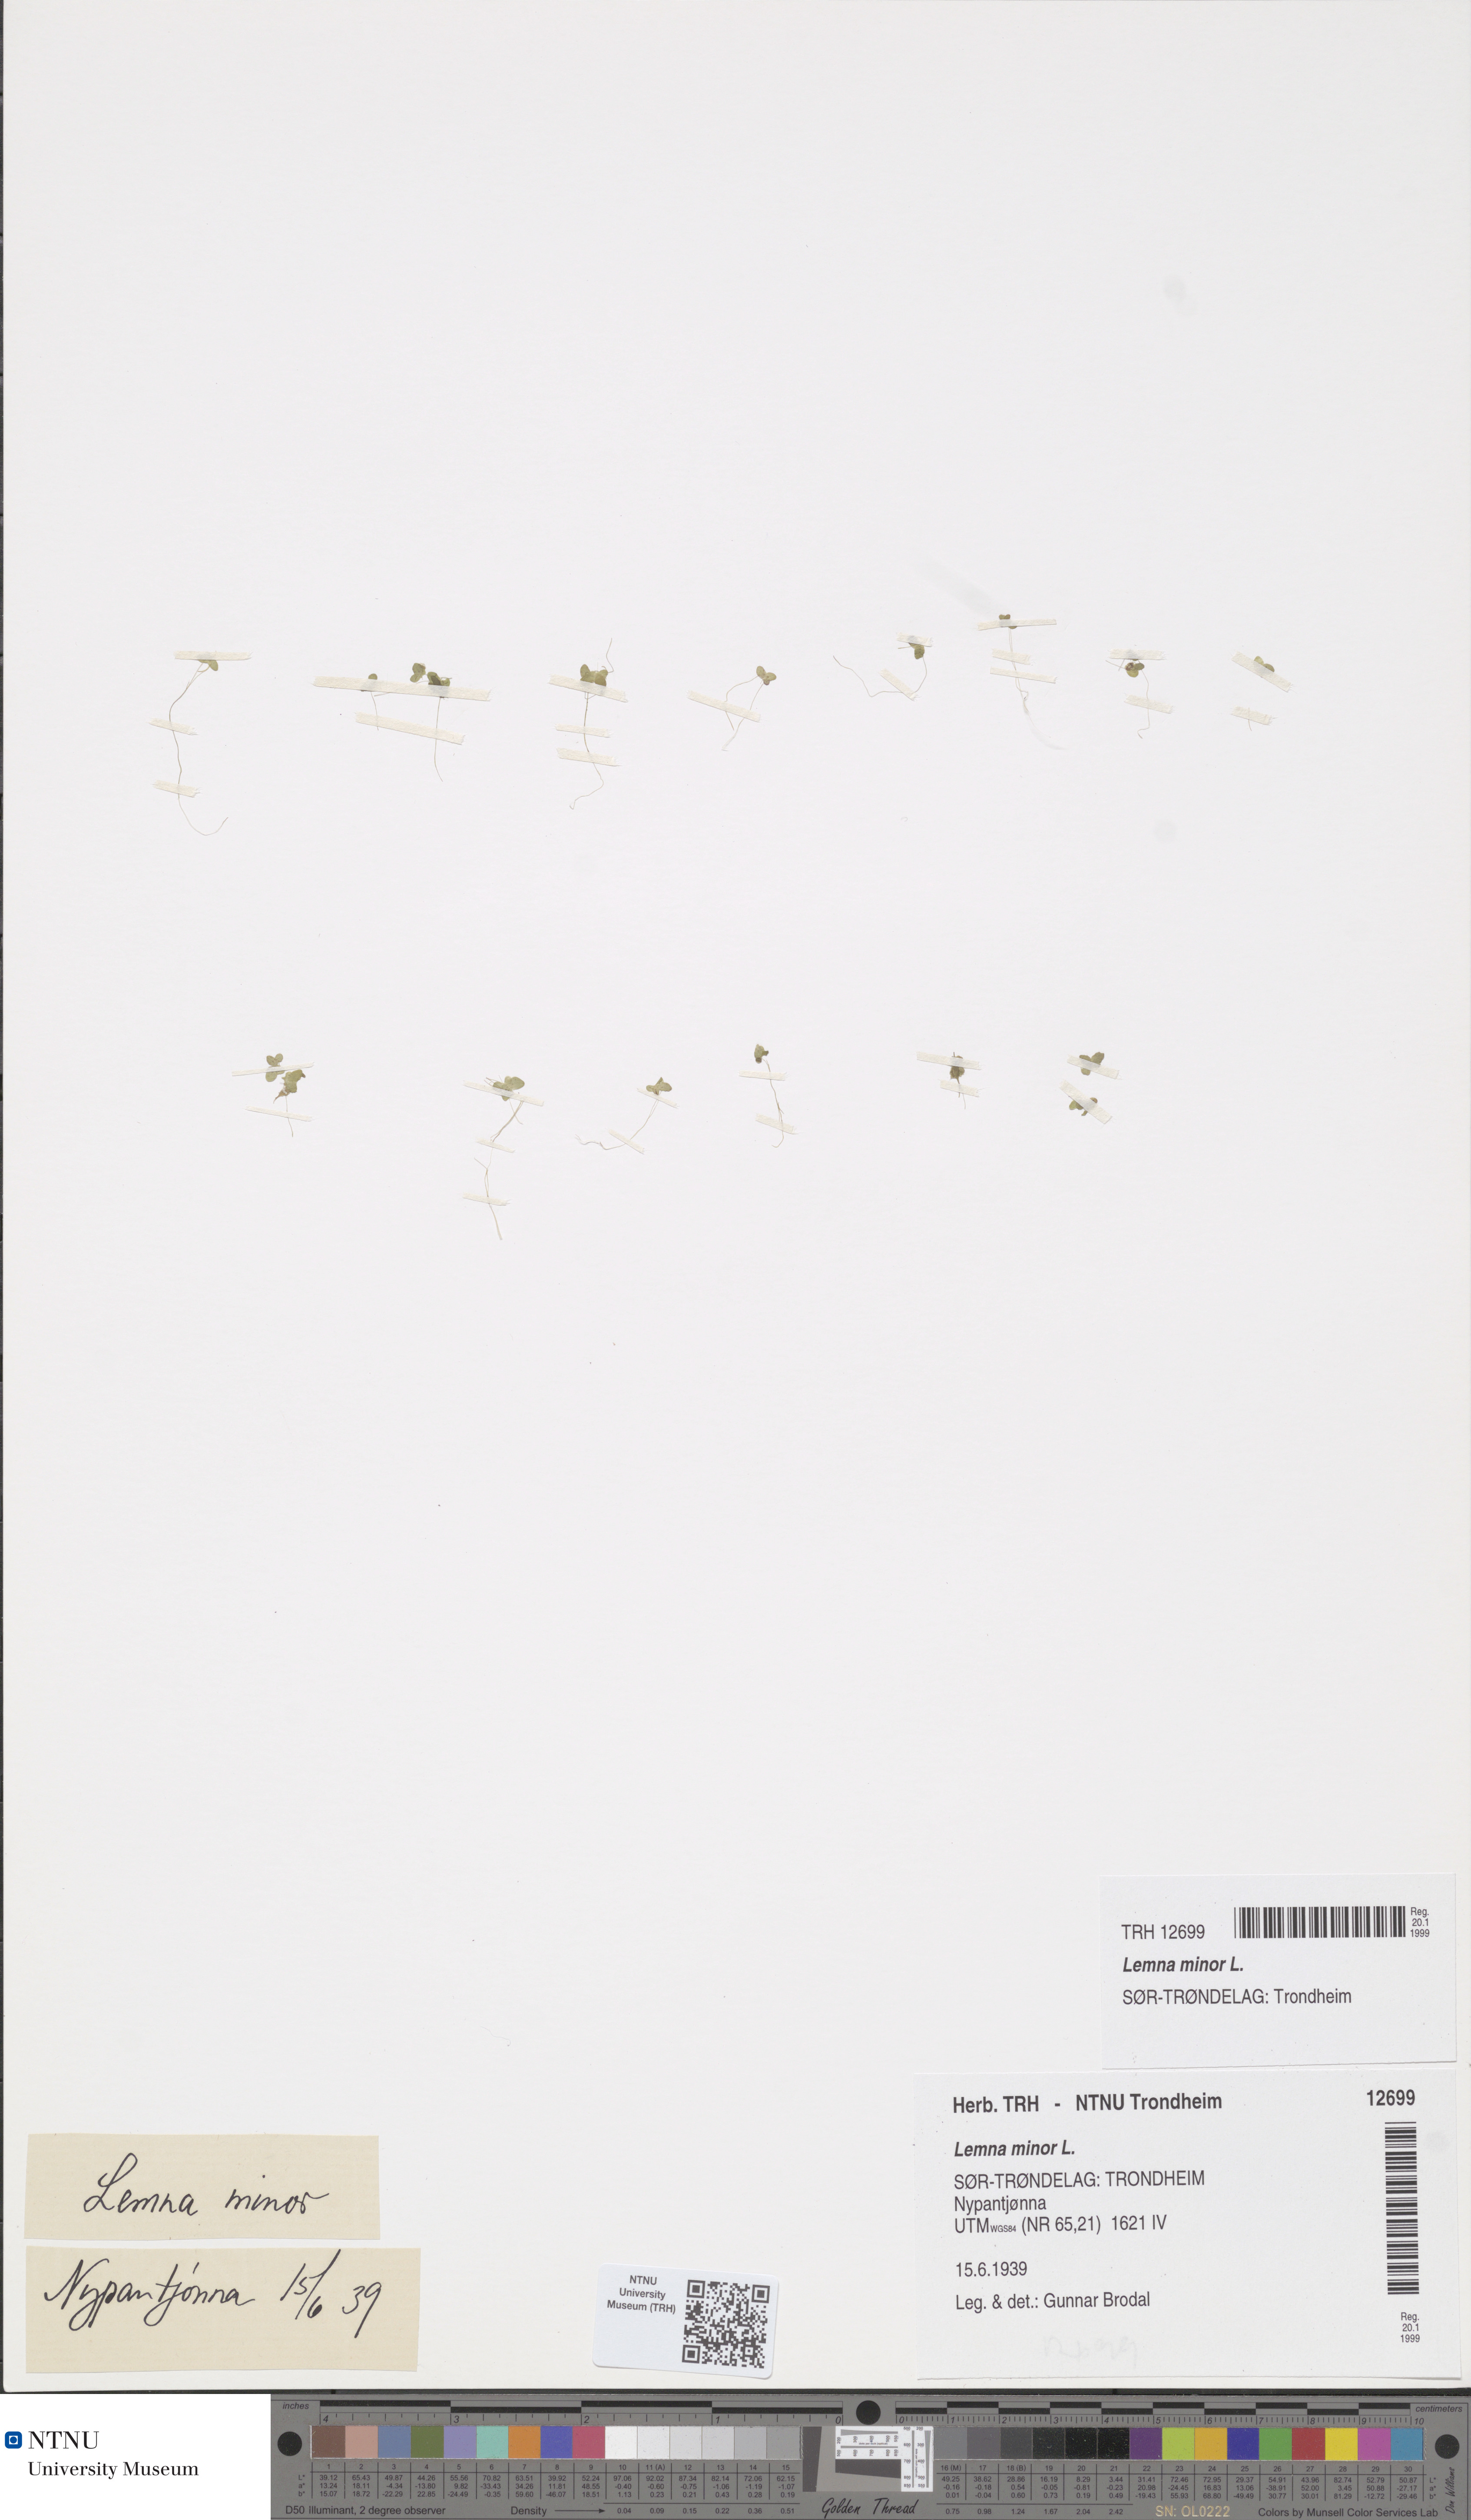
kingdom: Plantae
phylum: Tracheophyta
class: Liliopsida
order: Alismatales
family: Araceae
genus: Lemna
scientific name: Lemna minor
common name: Common duckweed
